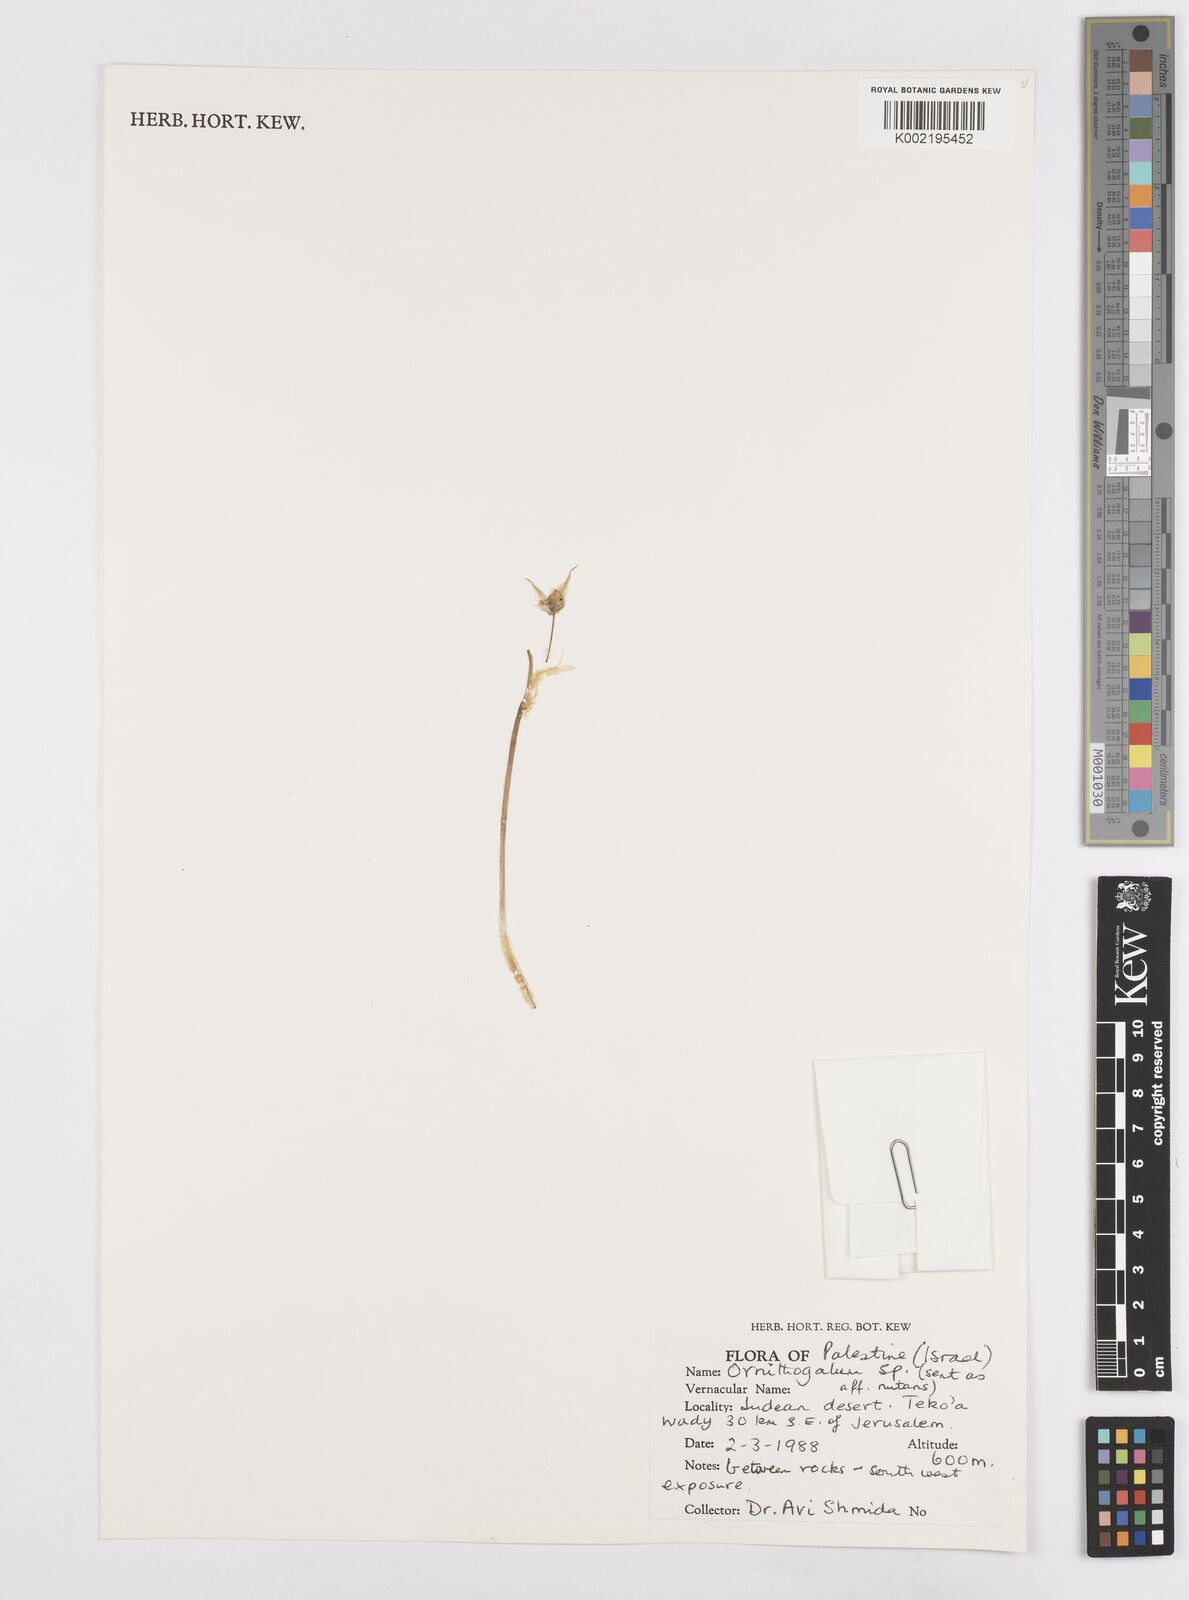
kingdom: Plantae
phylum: Tracheophyta
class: Liliopsida
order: Asparagales
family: Asparagaceae
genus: Ornithogalum
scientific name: Ornithogalum
